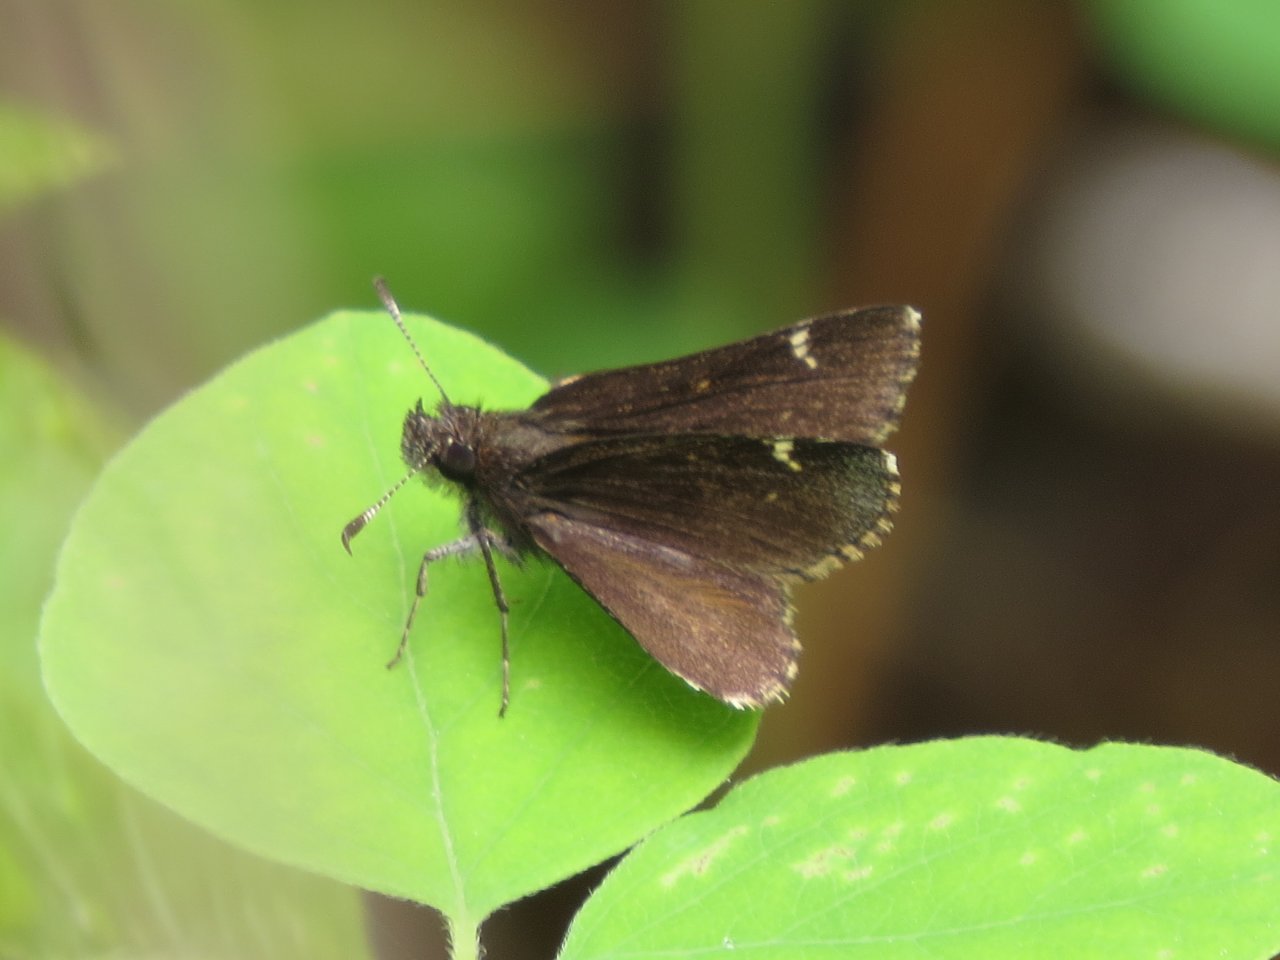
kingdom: Animalia
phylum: Arthropoda
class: Insecta
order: Lepidoptera
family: Hesperiidae
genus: Mastor
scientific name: Mastor vialis
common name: Common Roadside-Skipper
